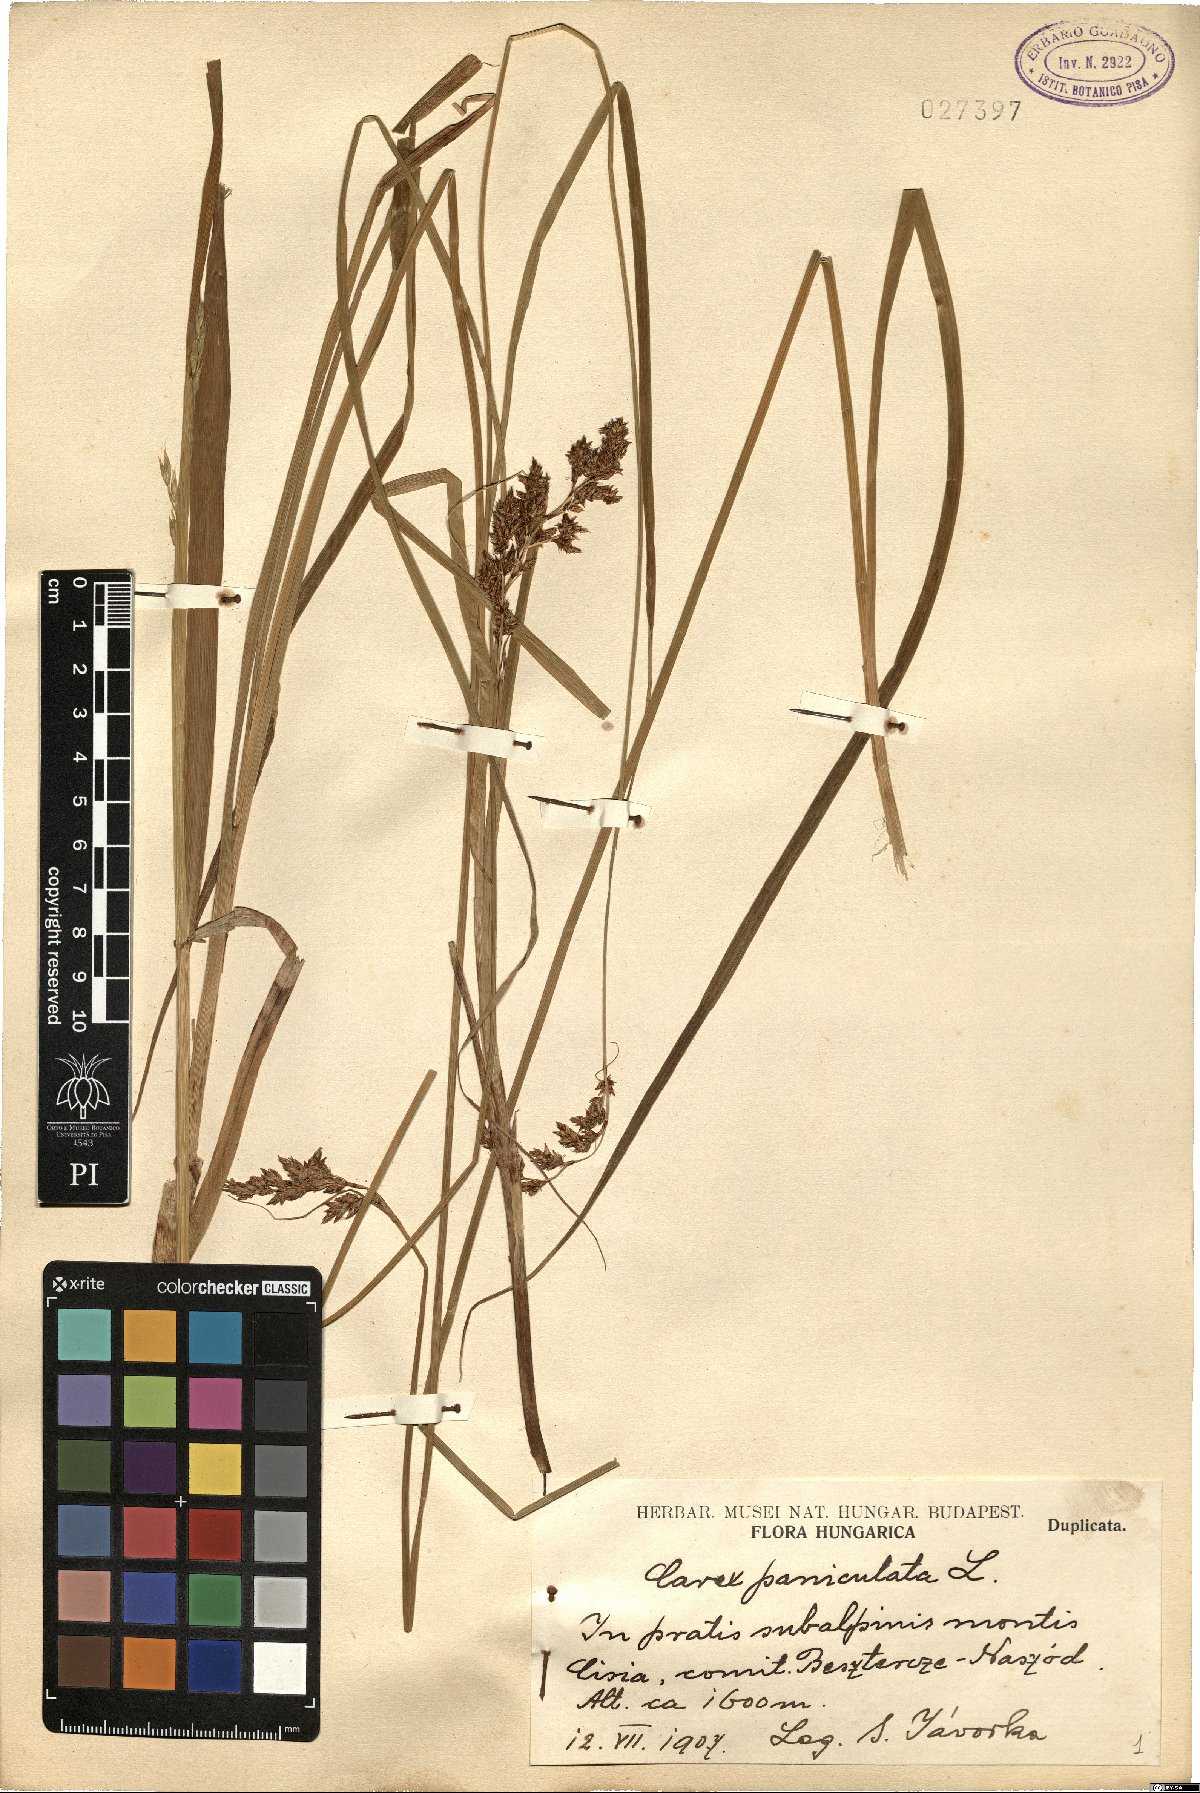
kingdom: Plantae
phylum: Tracheophyta
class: Liliopsida
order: Poales
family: Cyperaceae
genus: Carex
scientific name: Carex paniculata
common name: Greater tussock-sedge
